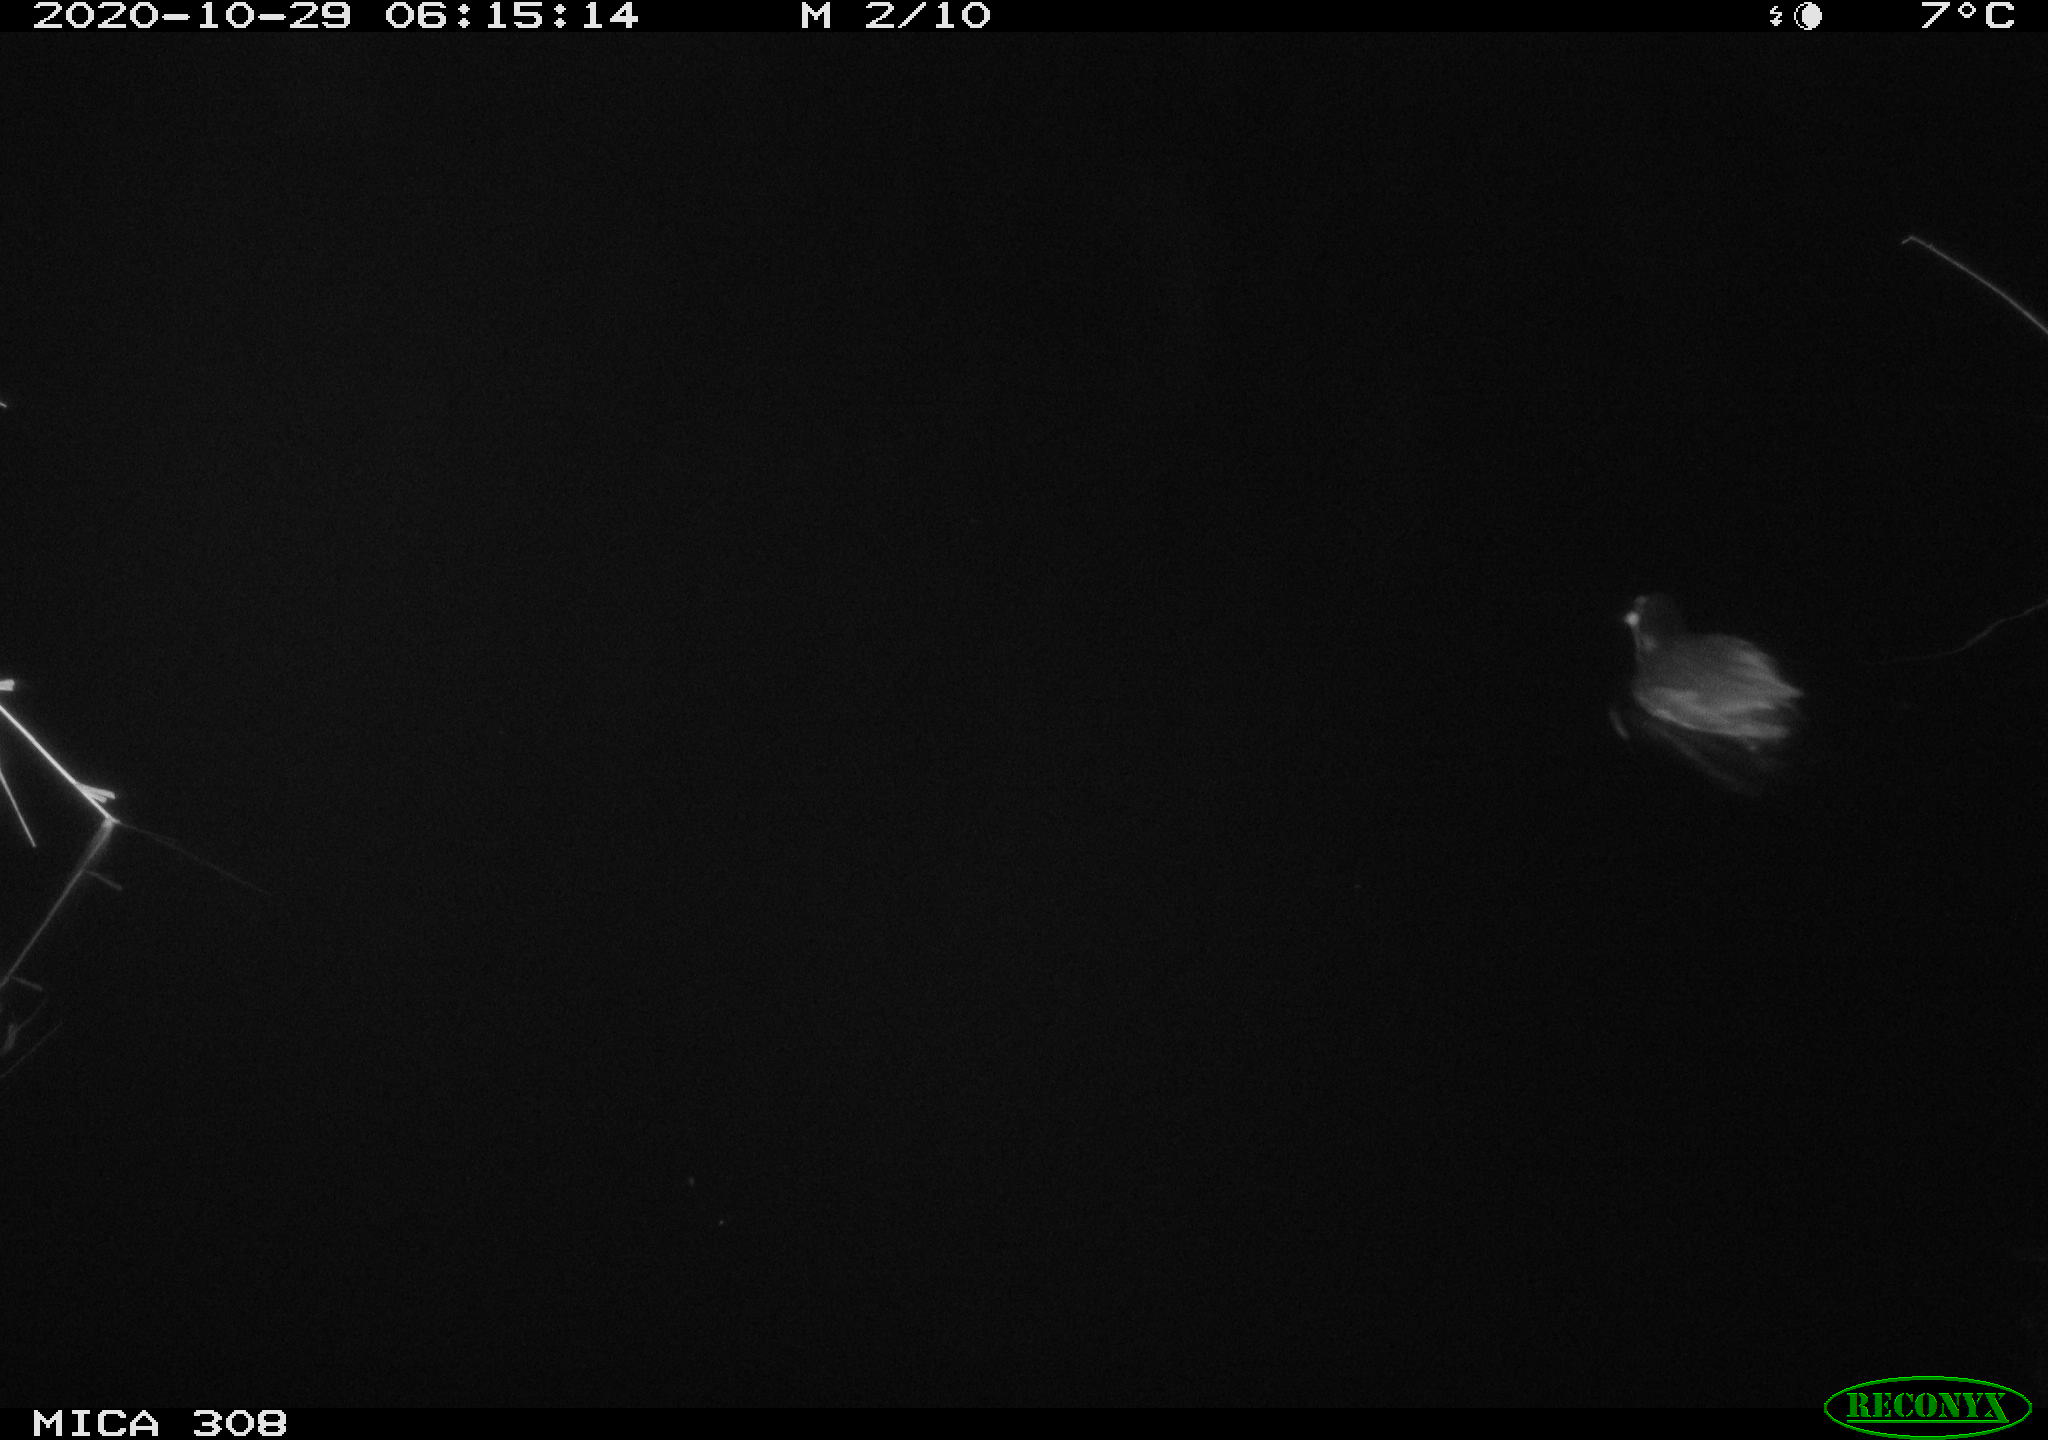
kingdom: Animalia
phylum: Chordata
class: Aves
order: Gruiformes
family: Rallidae
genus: Gallinula
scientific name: Gallinula chloropus
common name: Common moorhen
